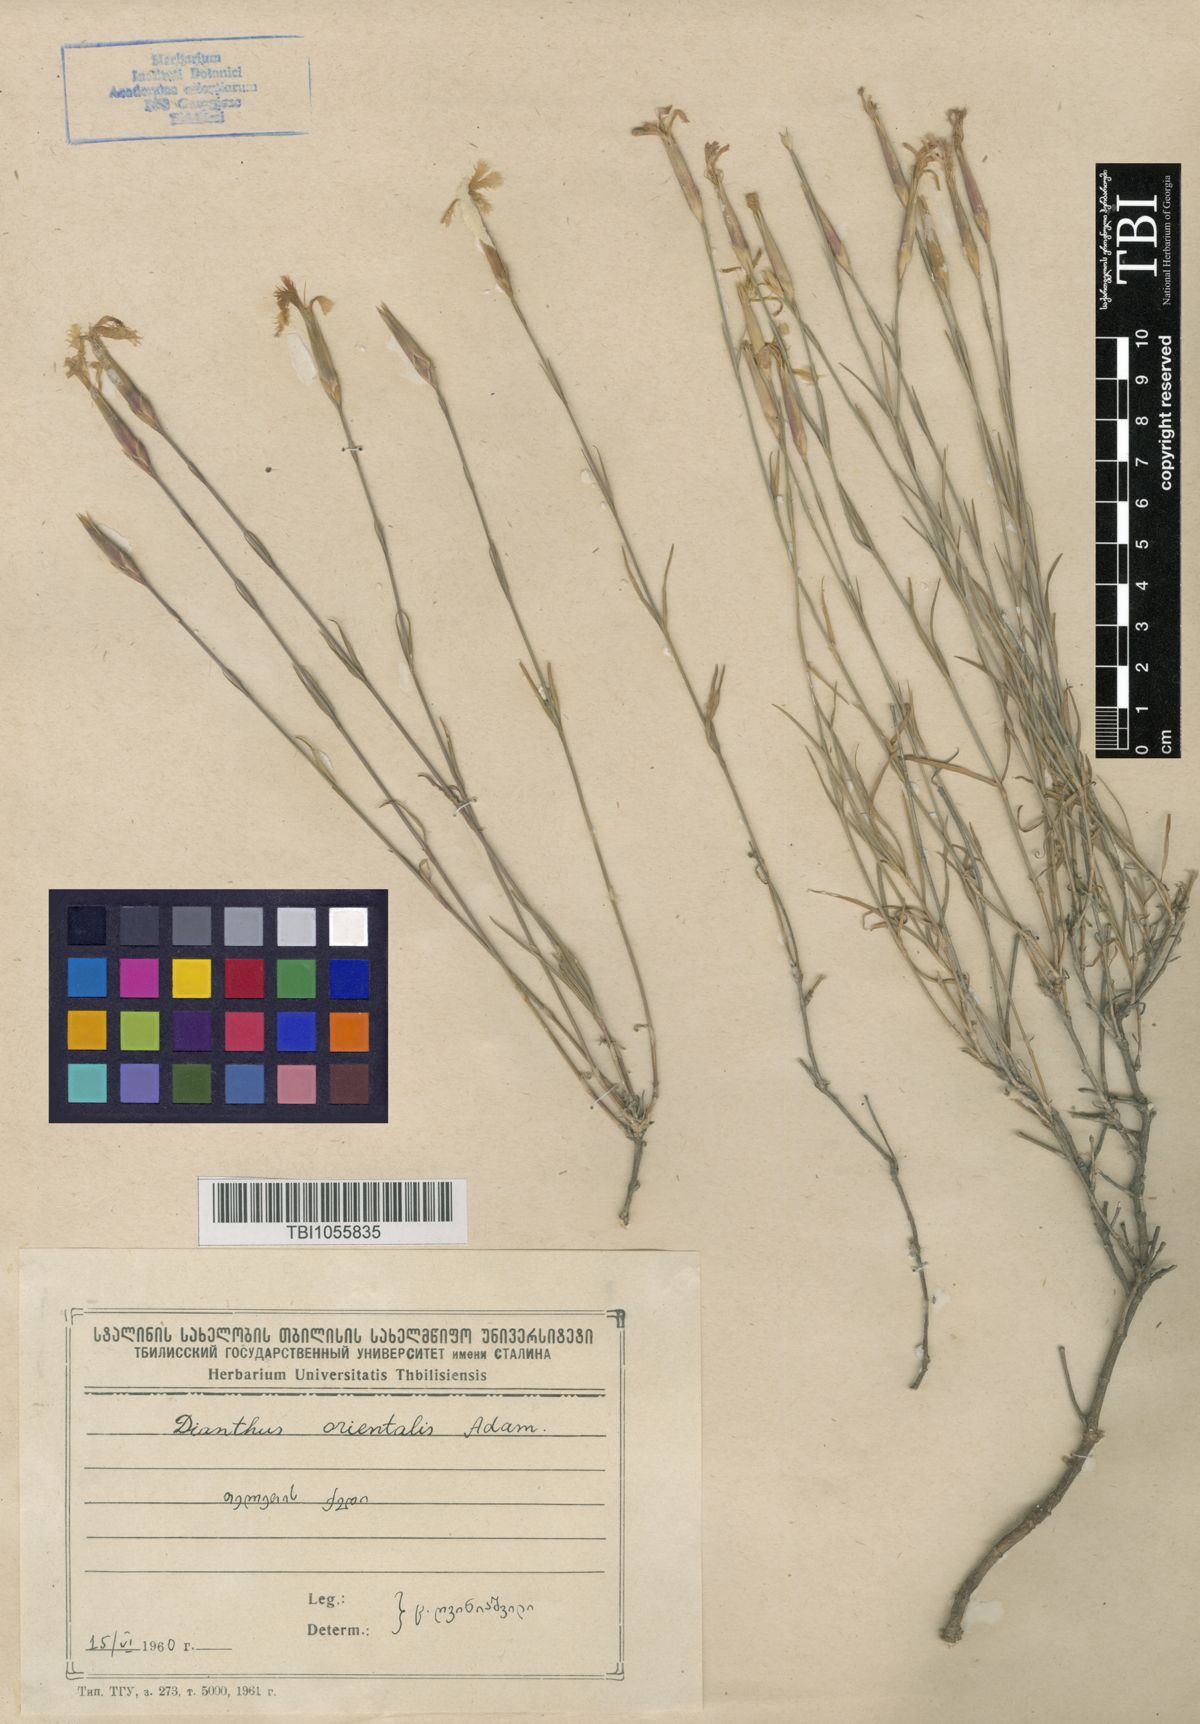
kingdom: Plantae
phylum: Tracheophyta
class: Magnoliopsida
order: Caryophyllales
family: Caryophyllaceae
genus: Dianthus
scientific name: Dianthus orientalis
